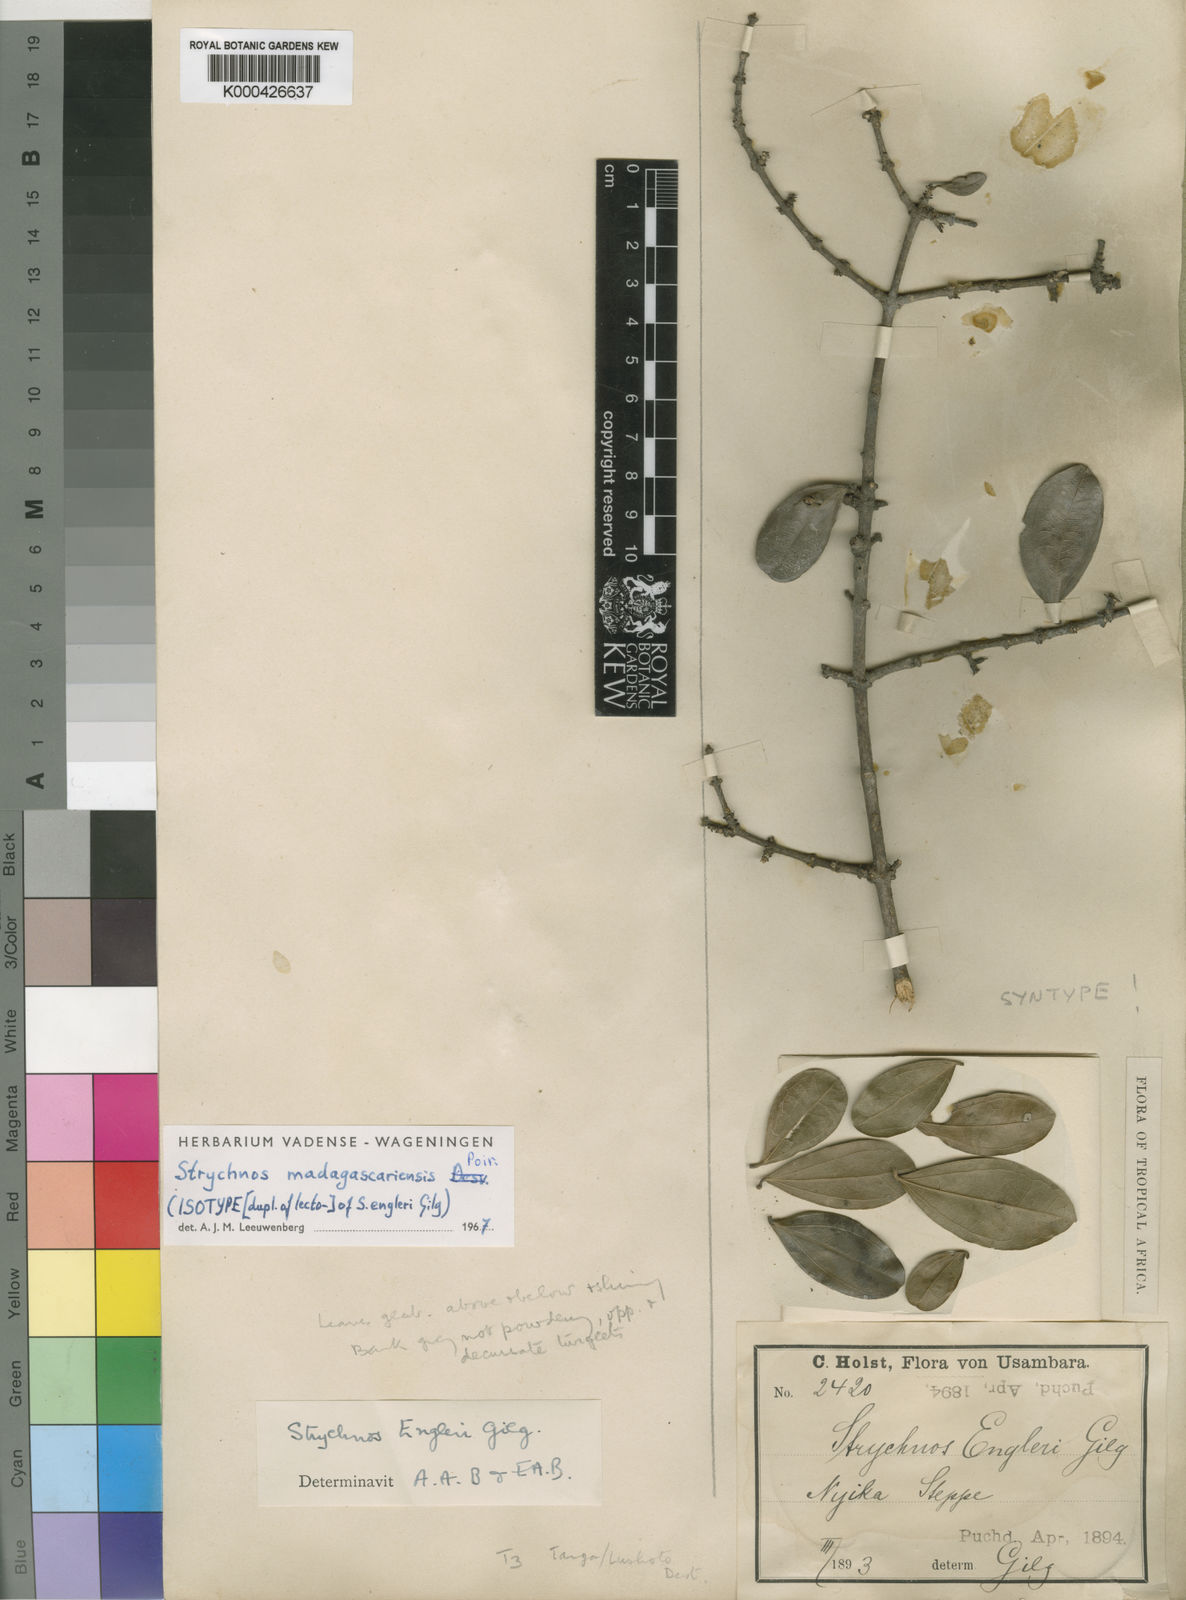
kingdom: Plantae
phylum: Tracheophyta
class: Magnoliopsida
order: Gentianales
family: Loganiaceae
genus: Strychnos
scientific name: Strychnos madagascariensis
